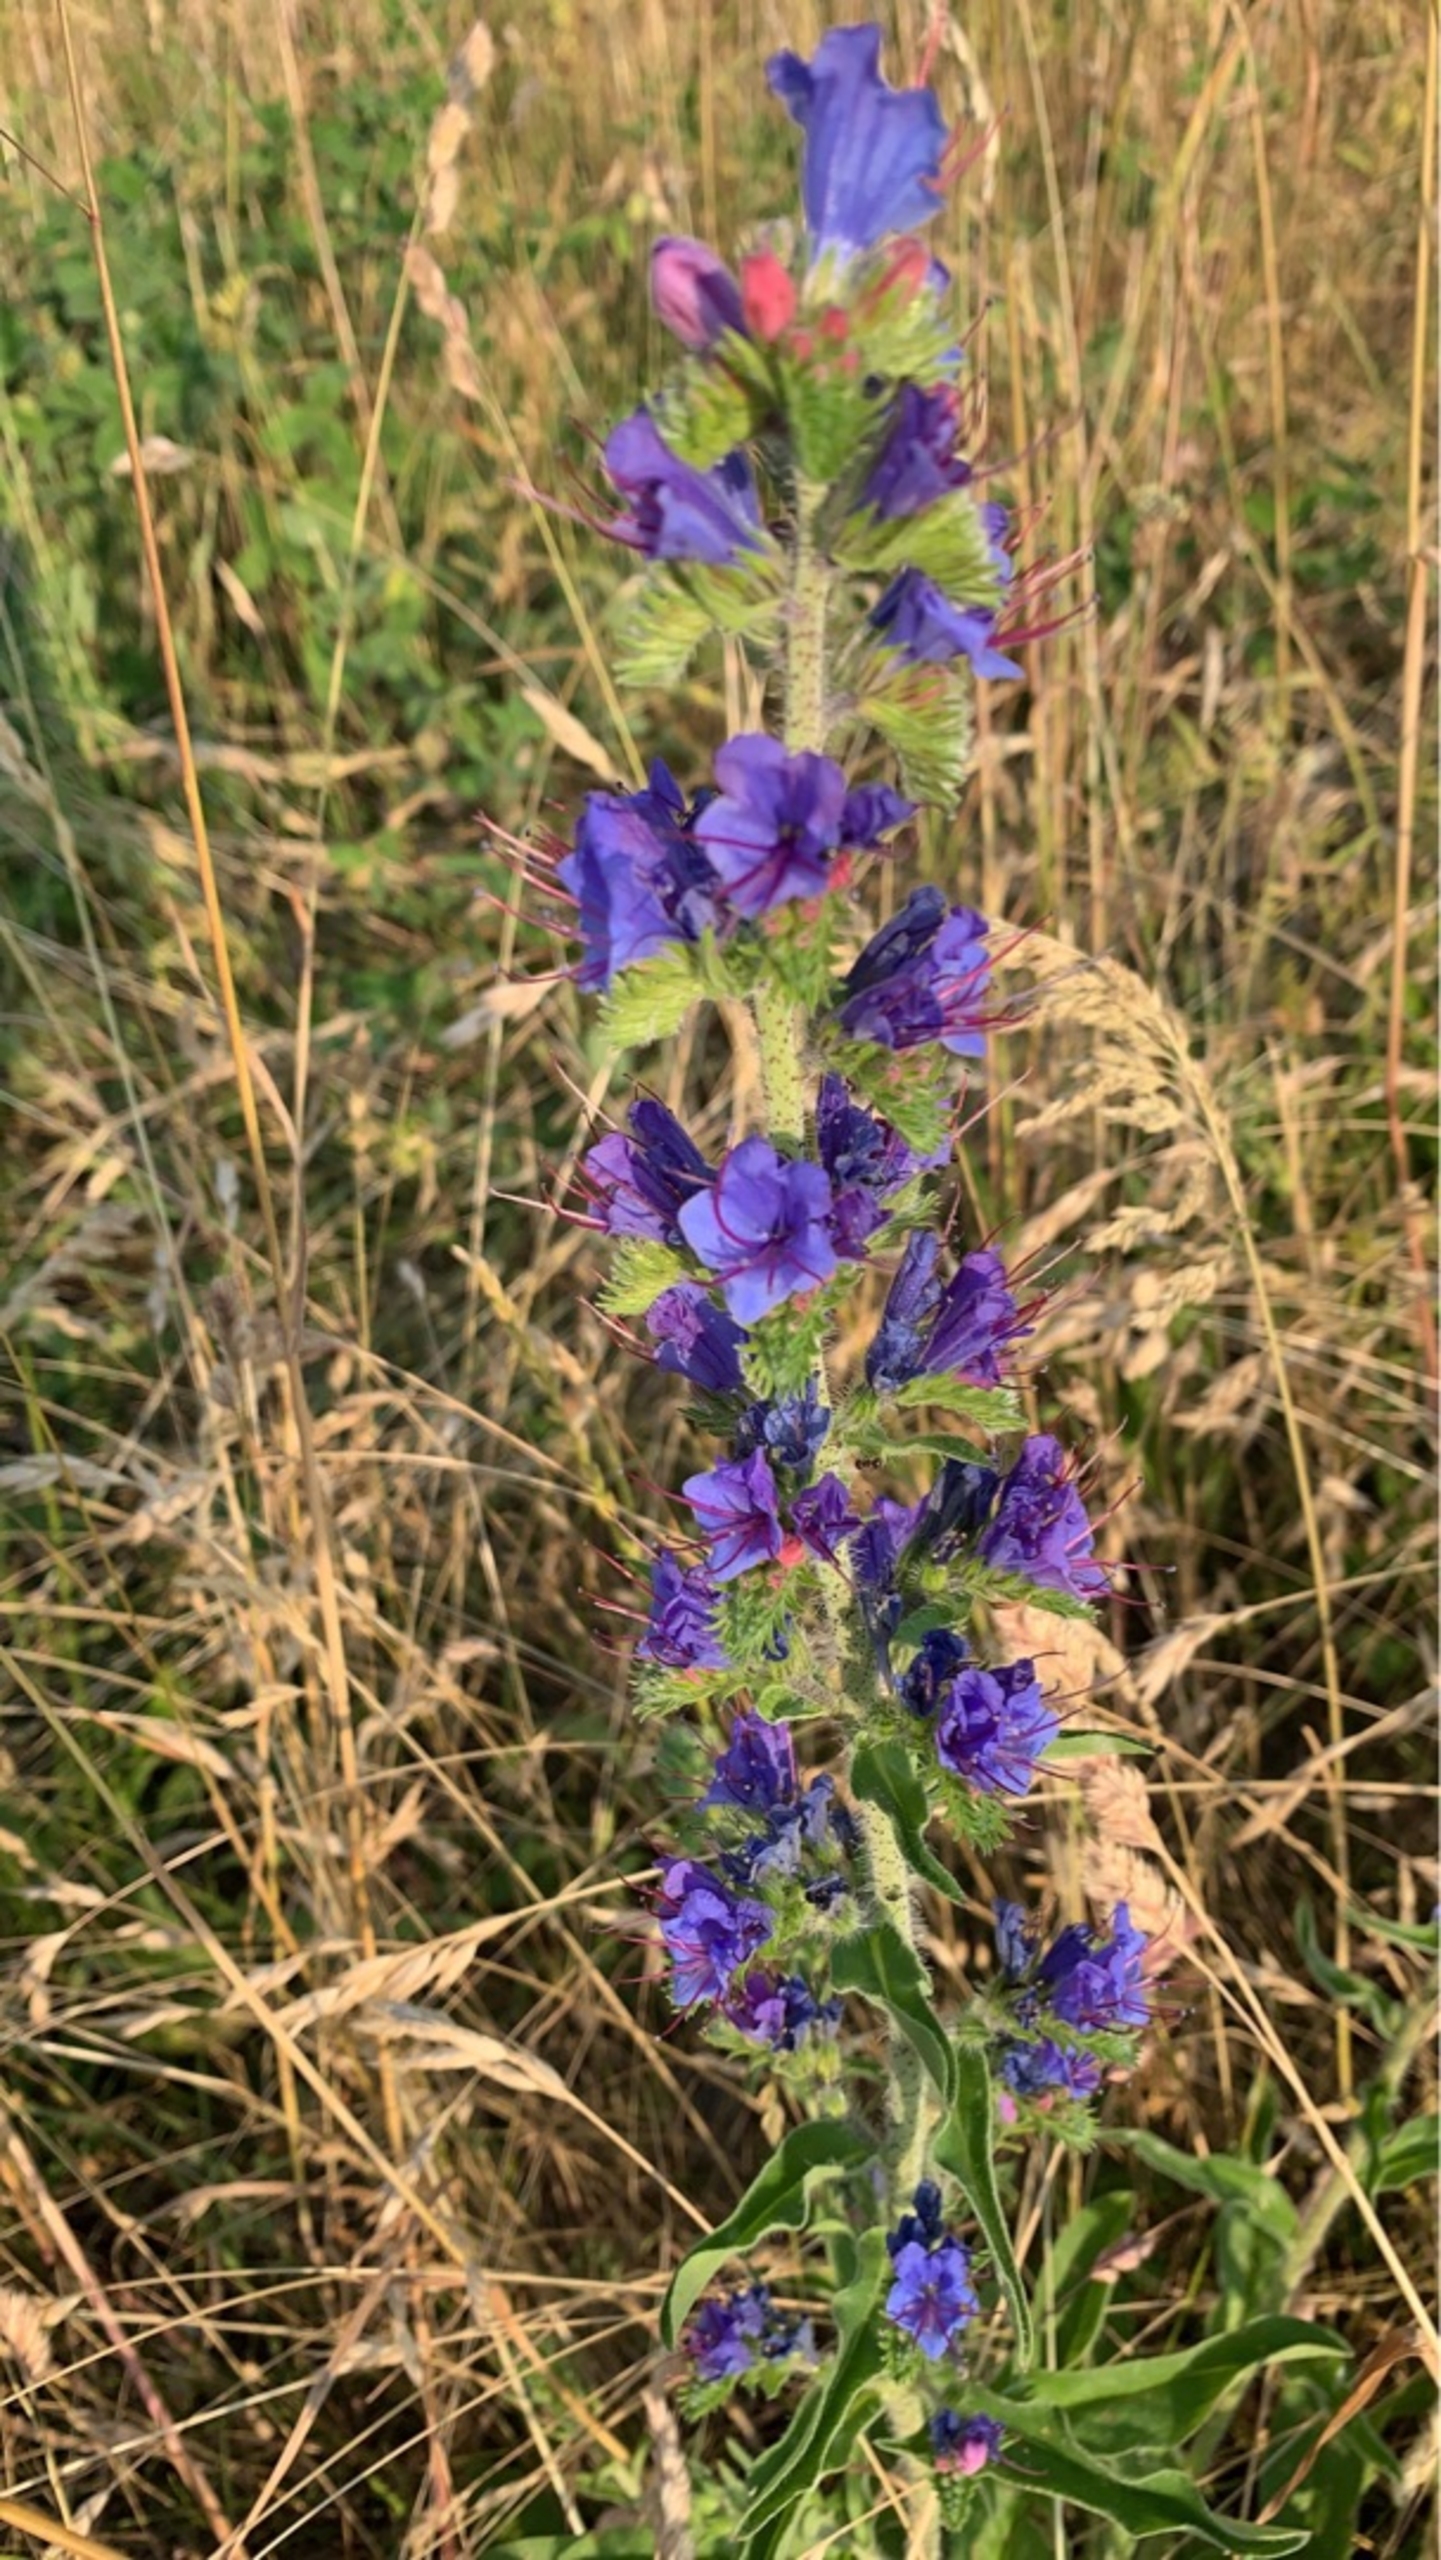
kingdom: Plantae
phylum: Tracheophyta
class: Magnoliopsida
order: Boraginales
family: Boraginaceae
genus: Echium
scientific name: Echium vulgare
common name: Slangehoved
